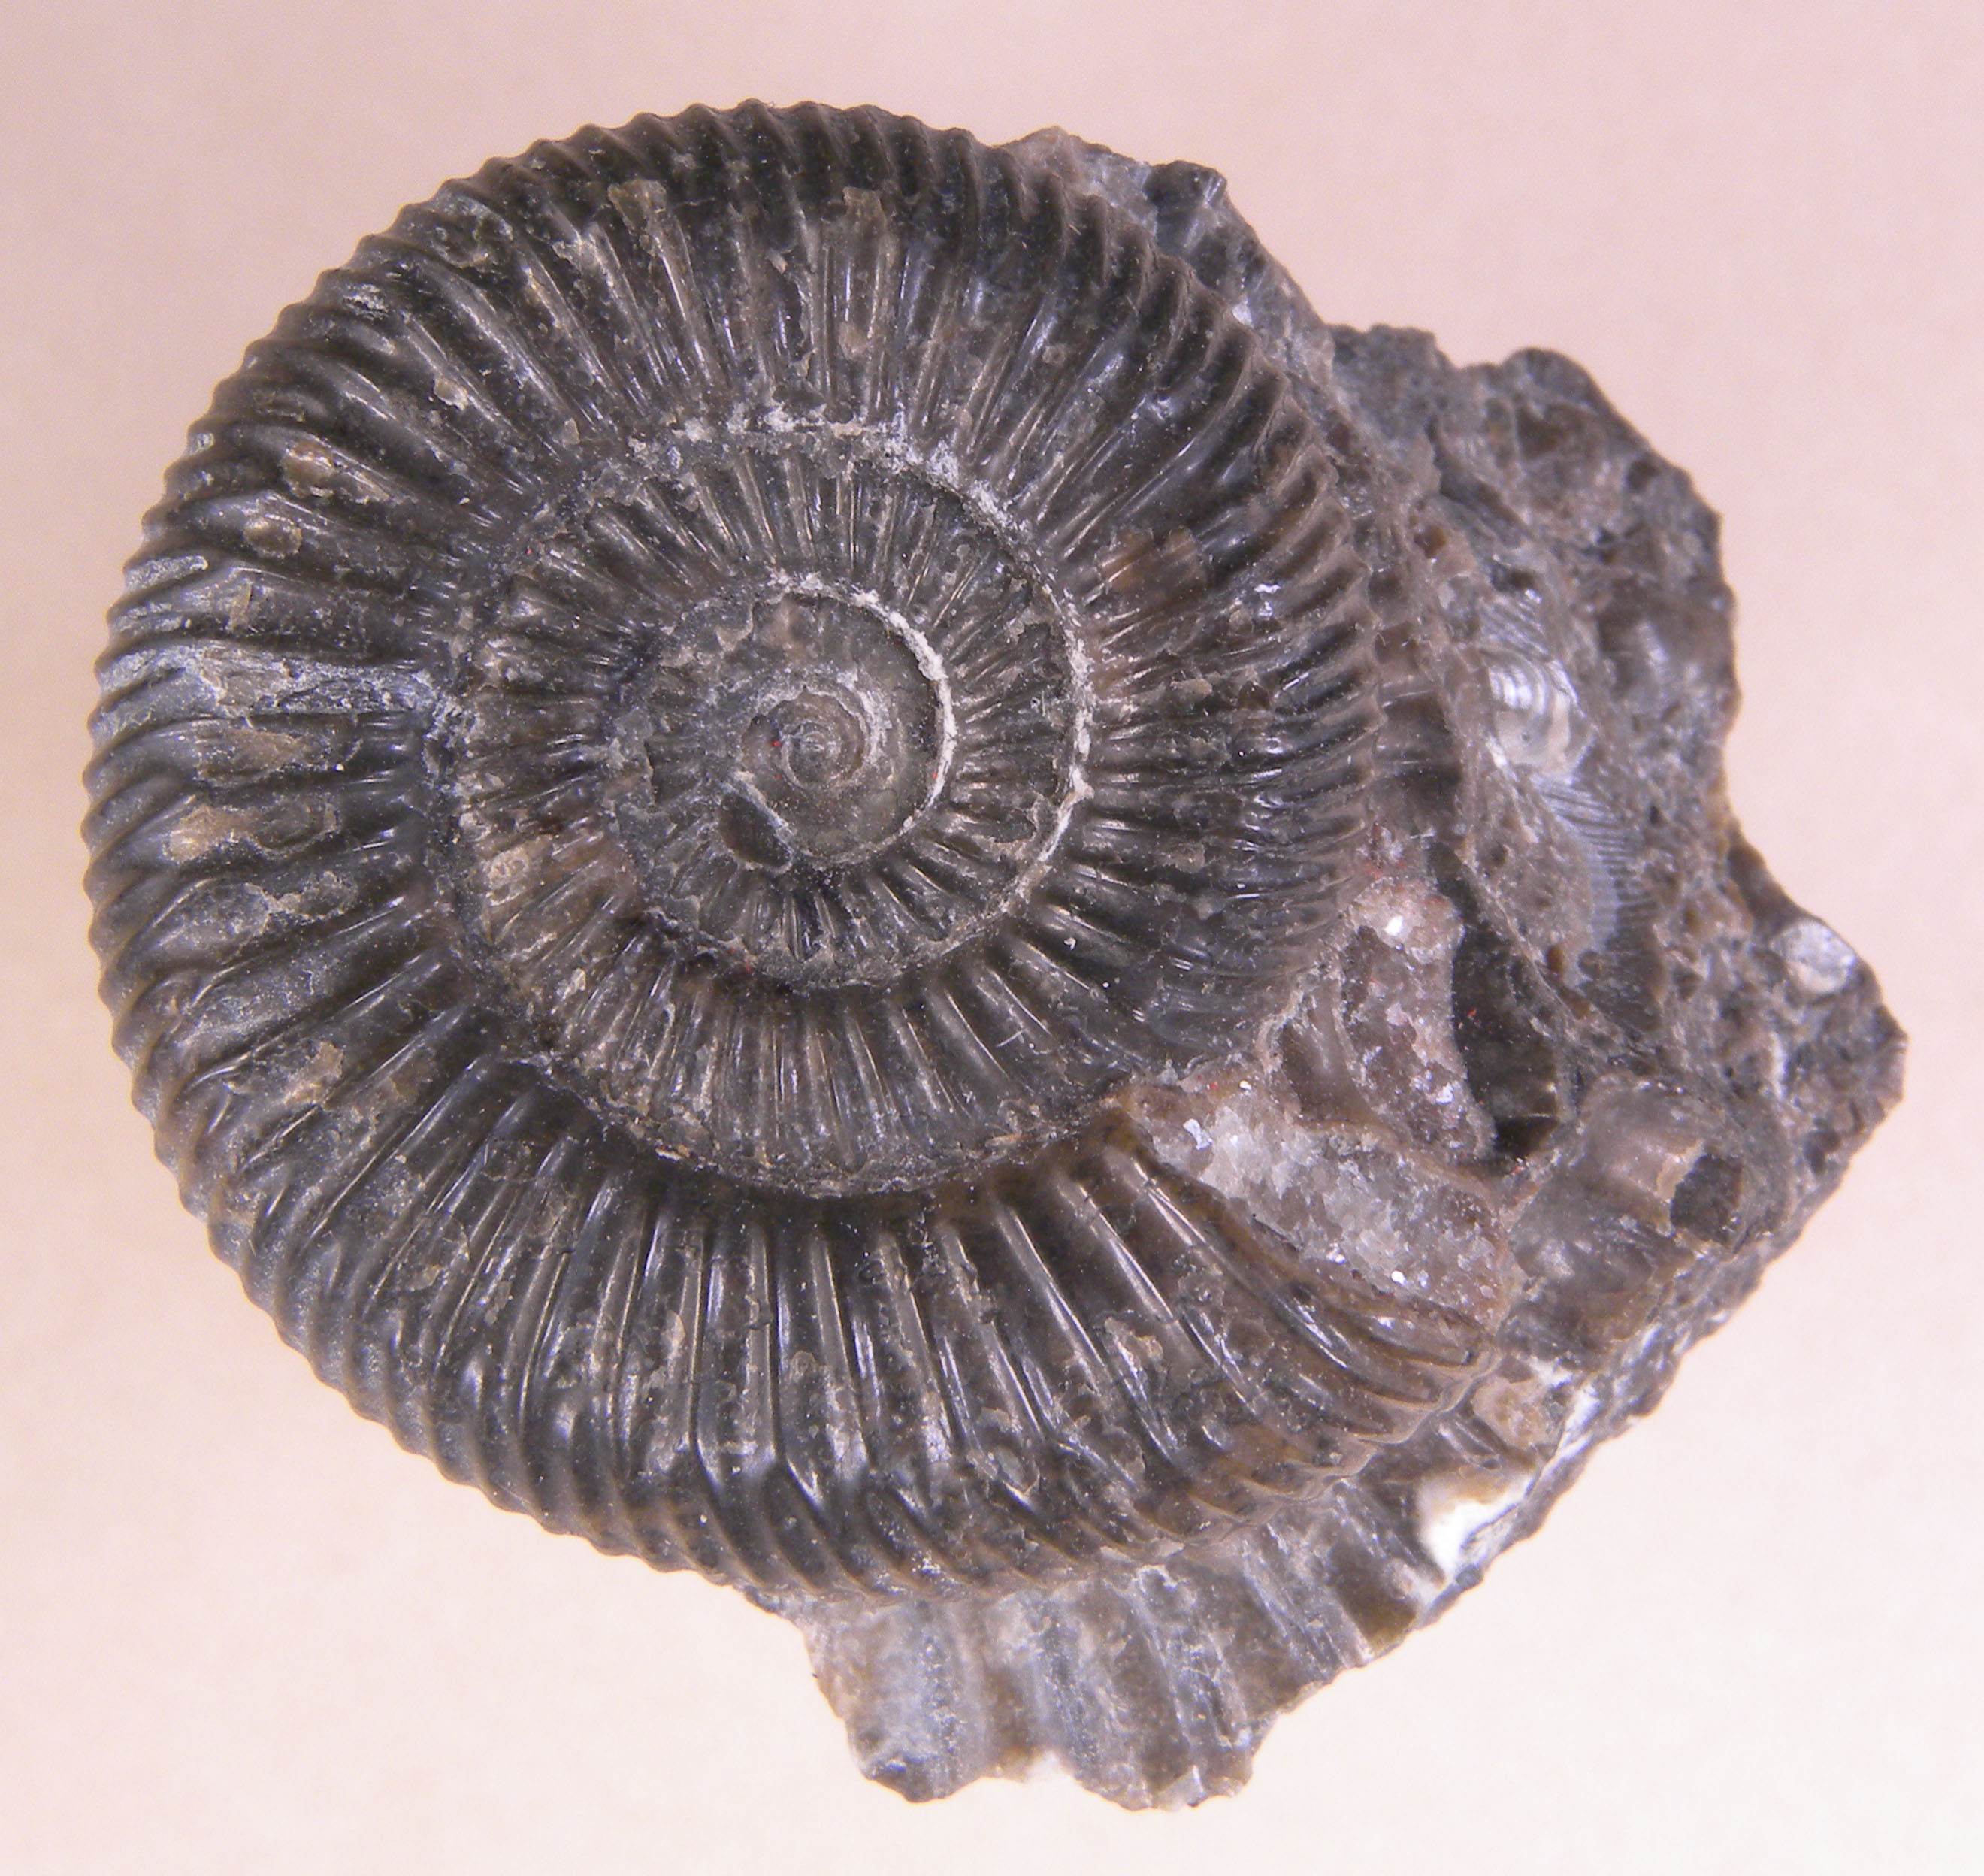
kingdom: Animalia
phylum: Mollusca
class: Cephalopoda
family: Dactylioceratidae
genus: Dactylioceras
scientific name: Dactylioceras athleticum
